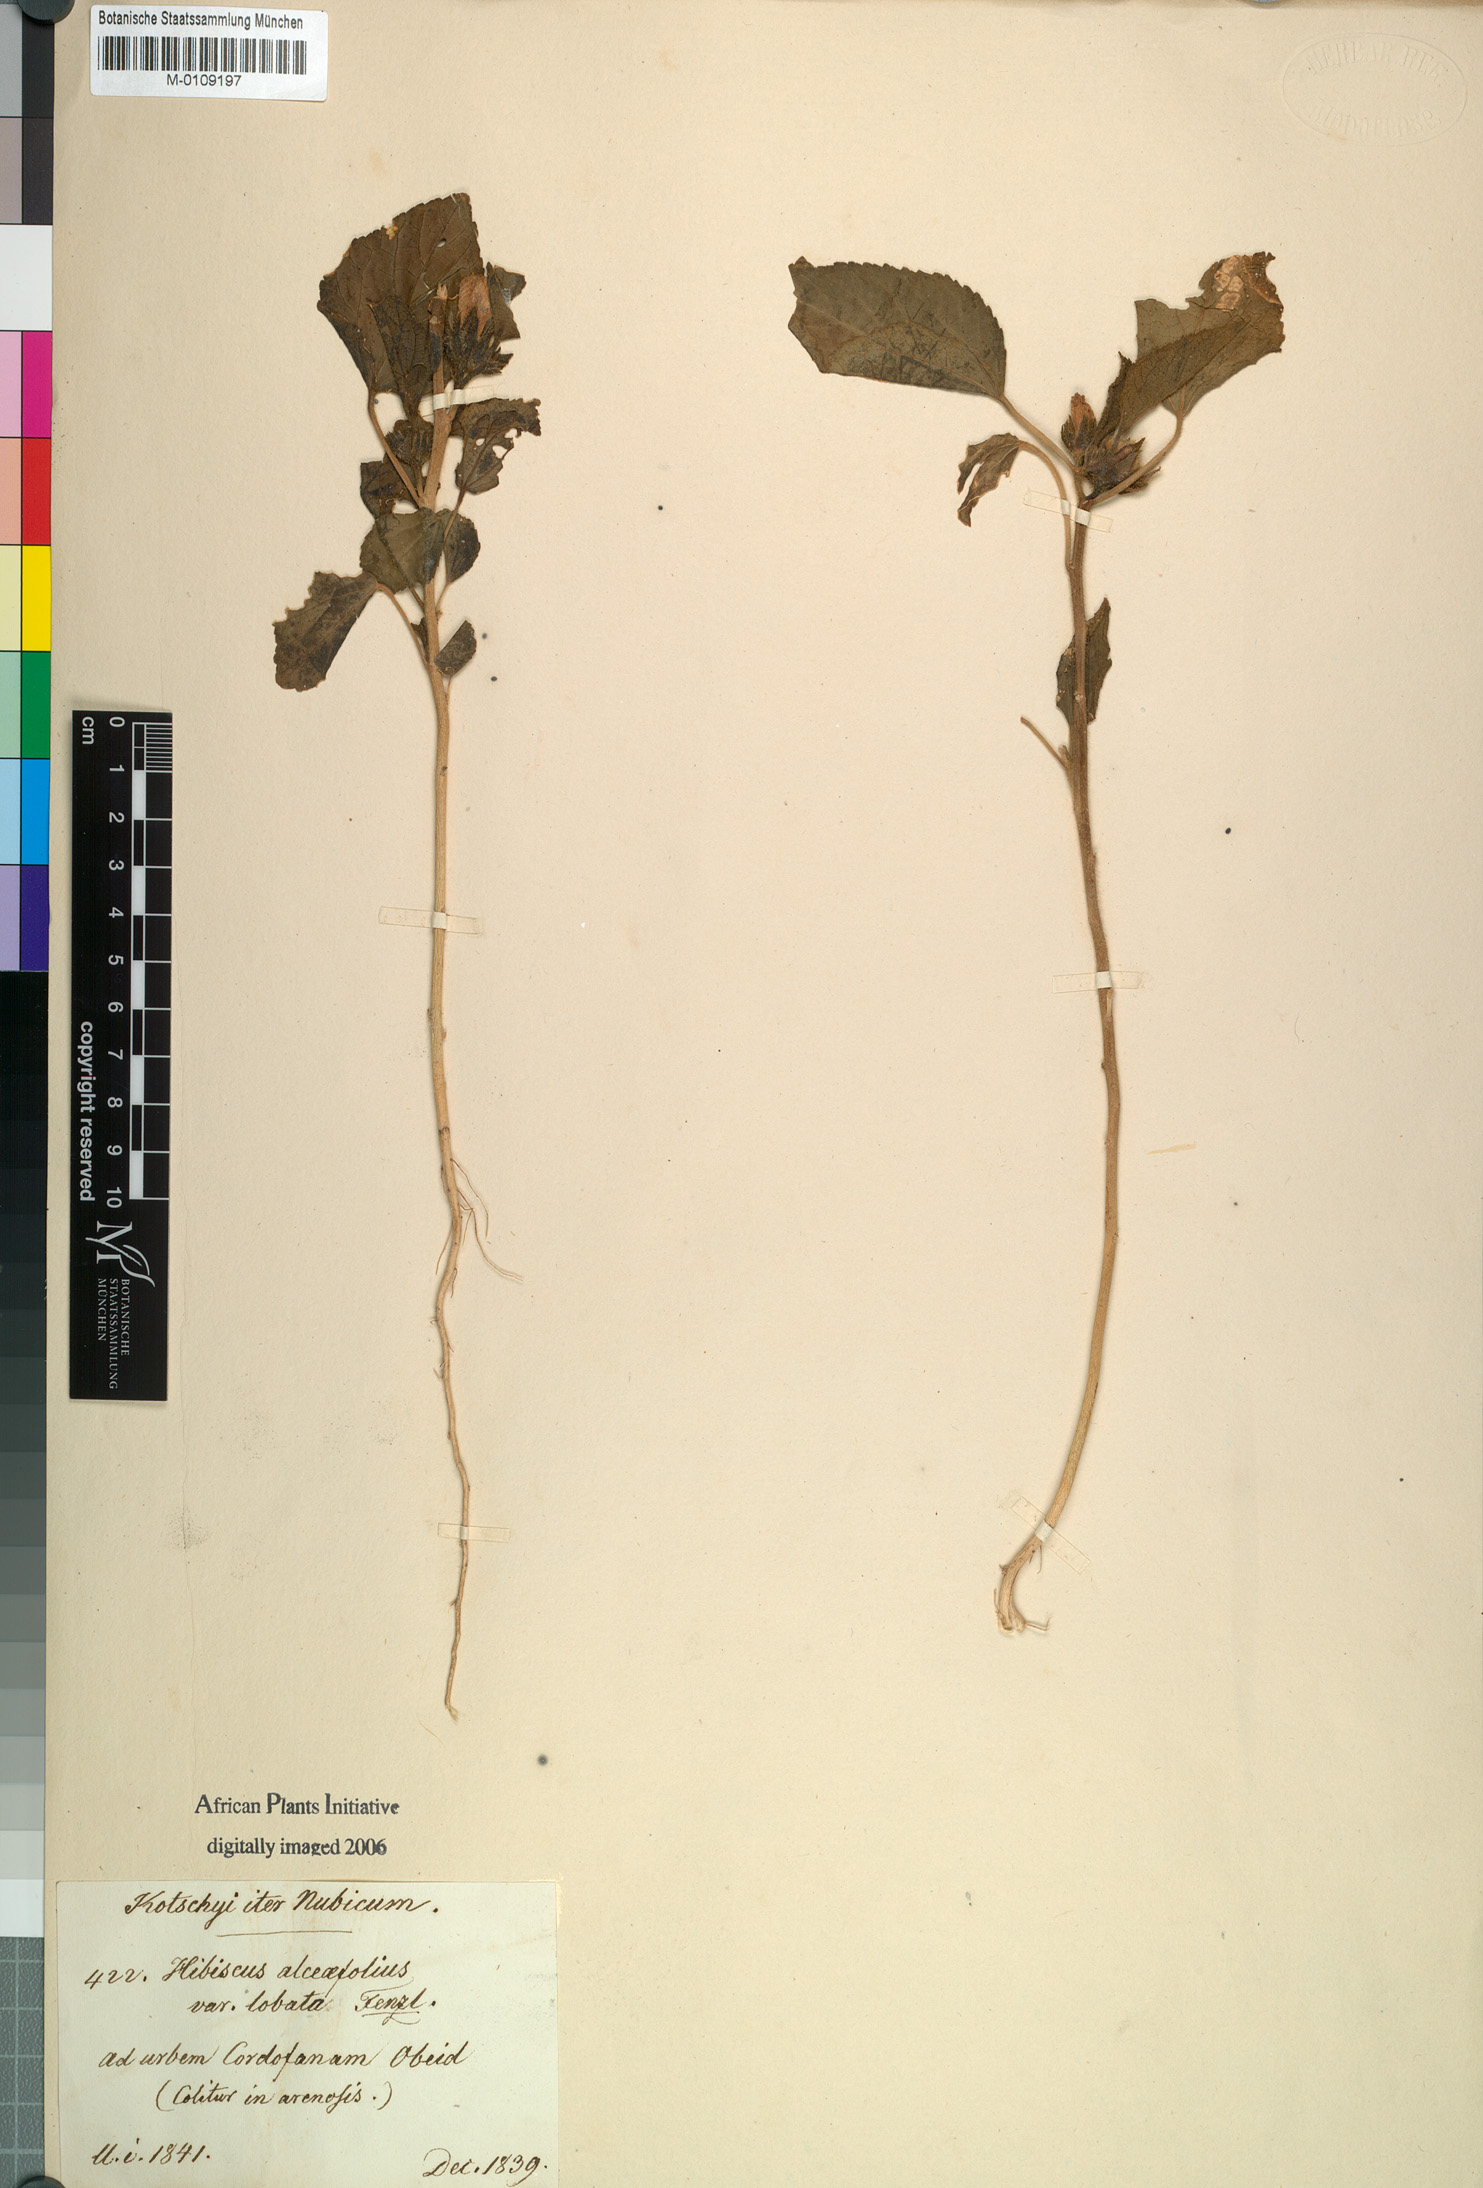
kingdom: Plantae
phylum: Tracheophyta
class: Magnoliopsida
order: Malvales
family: Malvaceae
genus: Kosteletzkya
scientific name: Kosteletzkya pentacarpos
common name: Virginia saltmarsh mallow
